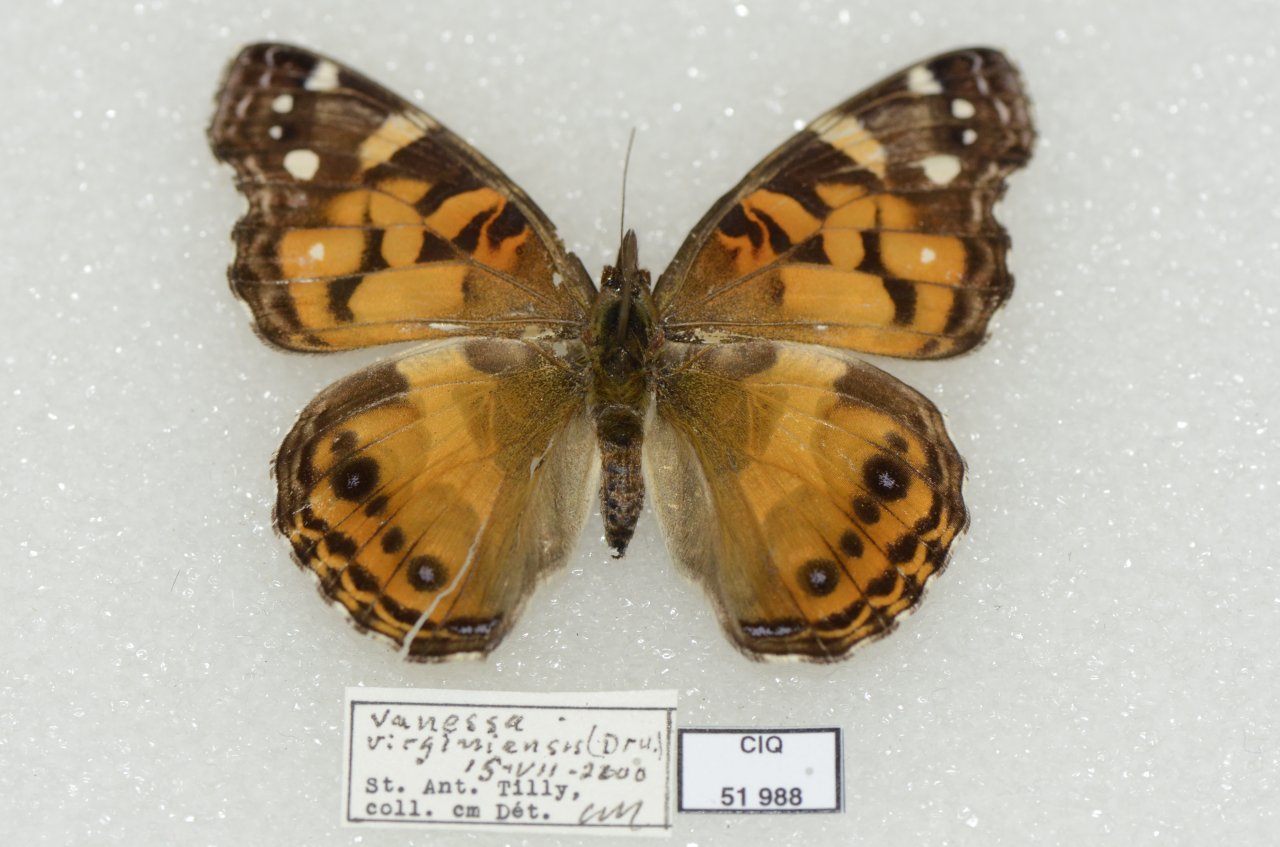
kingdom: Animalia
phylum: Arthropoda
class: Insecta
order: Lepidoptera
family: Nymphalidae
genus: Vanessa
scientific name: Vanessa virginiensis
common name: American Lady
